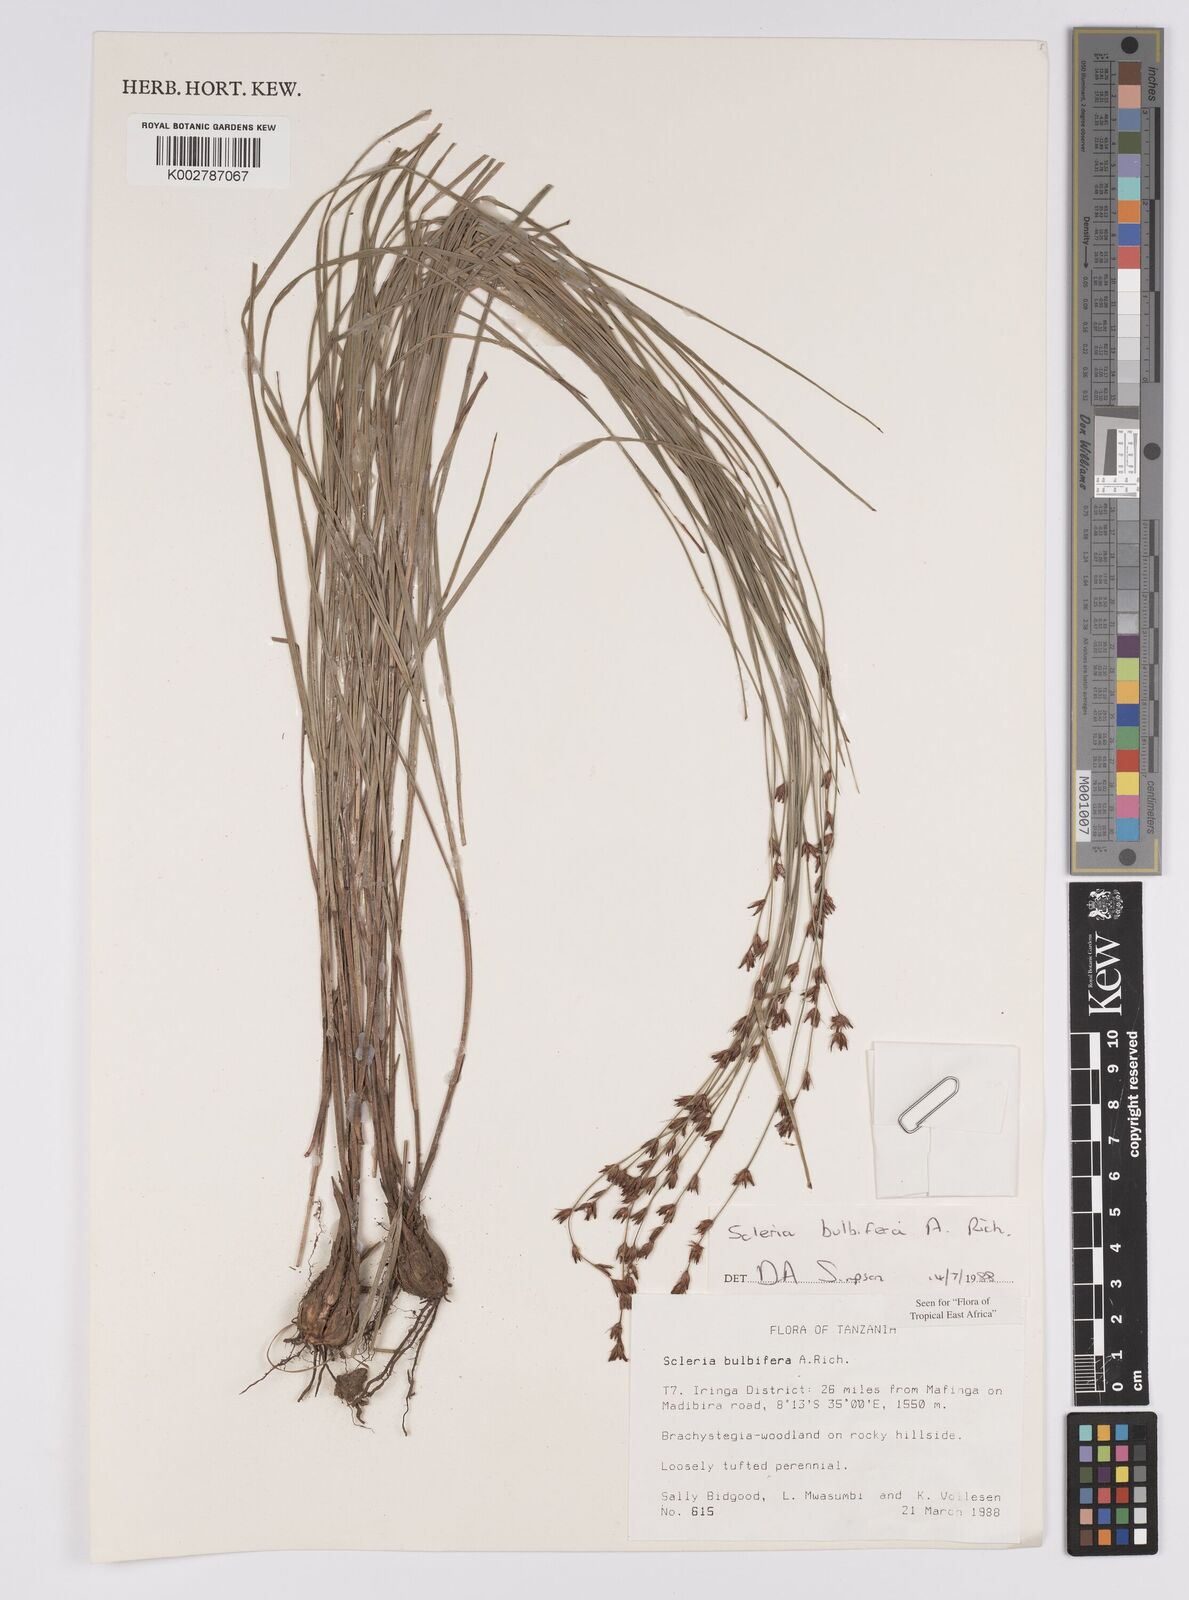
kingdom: Plantae
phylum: Tracheophyta
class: Liliopsida
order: Poales
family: Cyperaceae
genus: Scleria
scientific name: Scleria bulbifera
